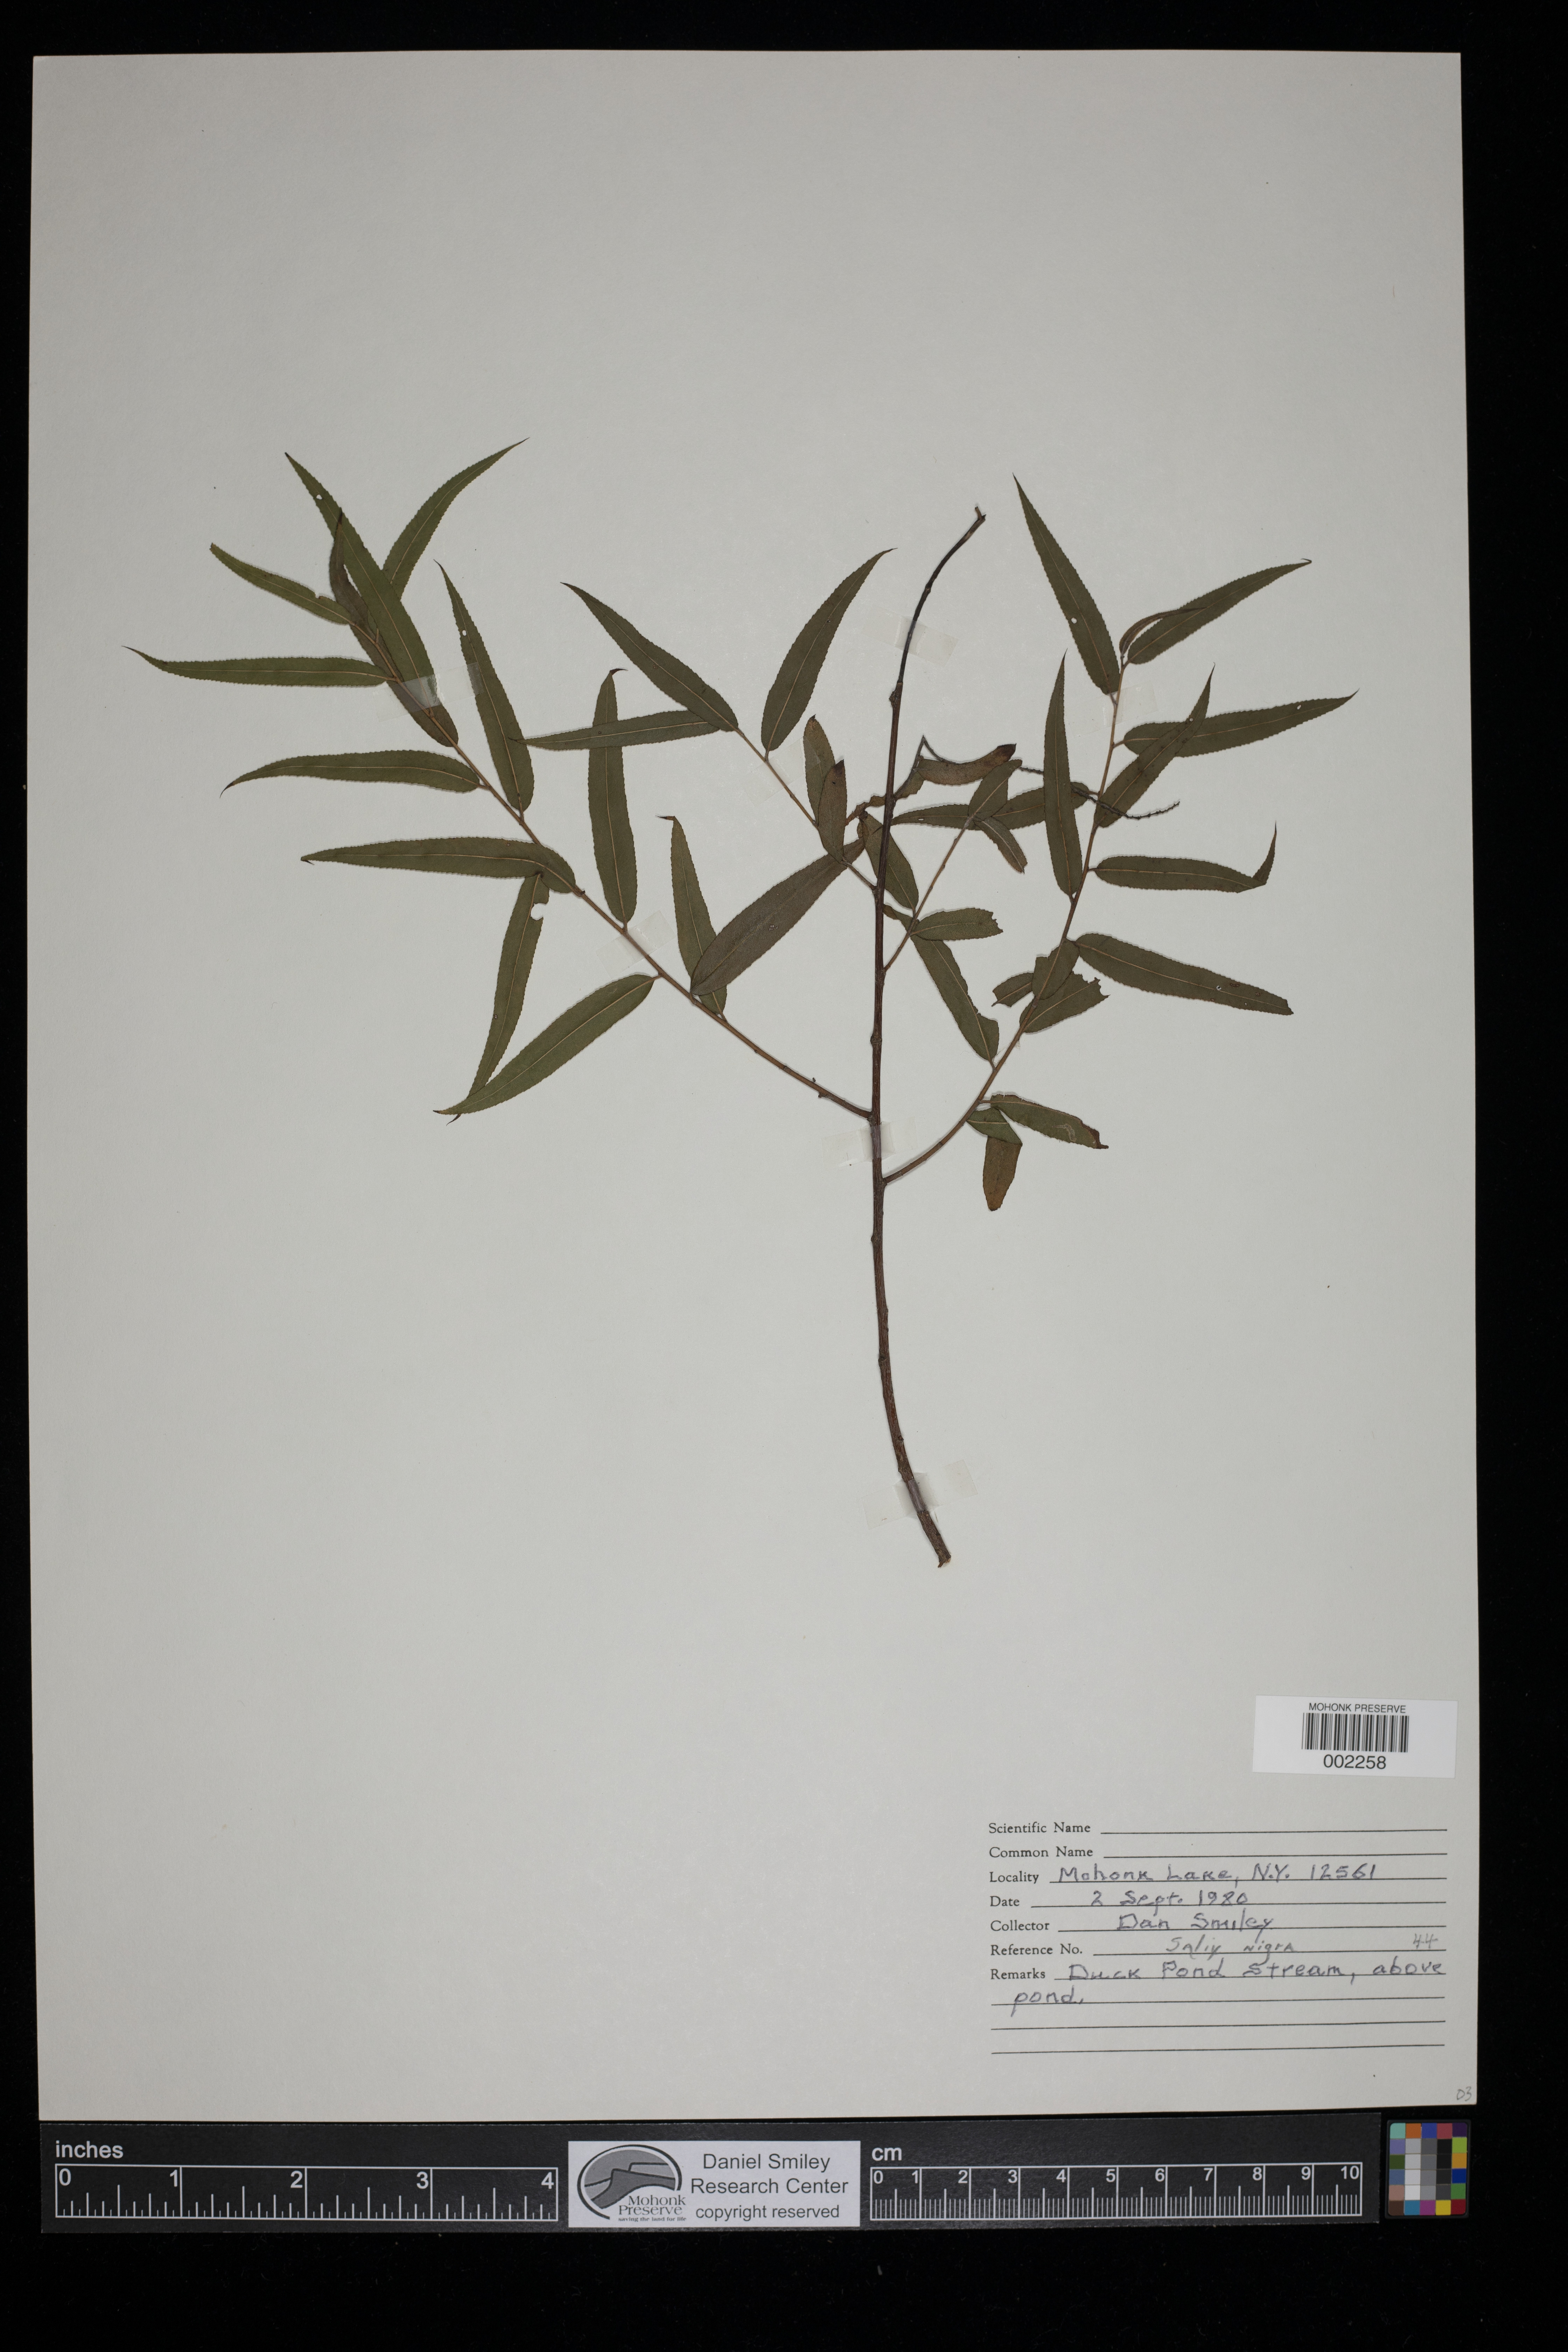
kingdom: Plantae
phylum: Tracheophyta
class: Magnoliopsida
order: Malpighiales
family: Salicaceae
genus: Salix
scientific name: Salix nigra
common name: Black willow
